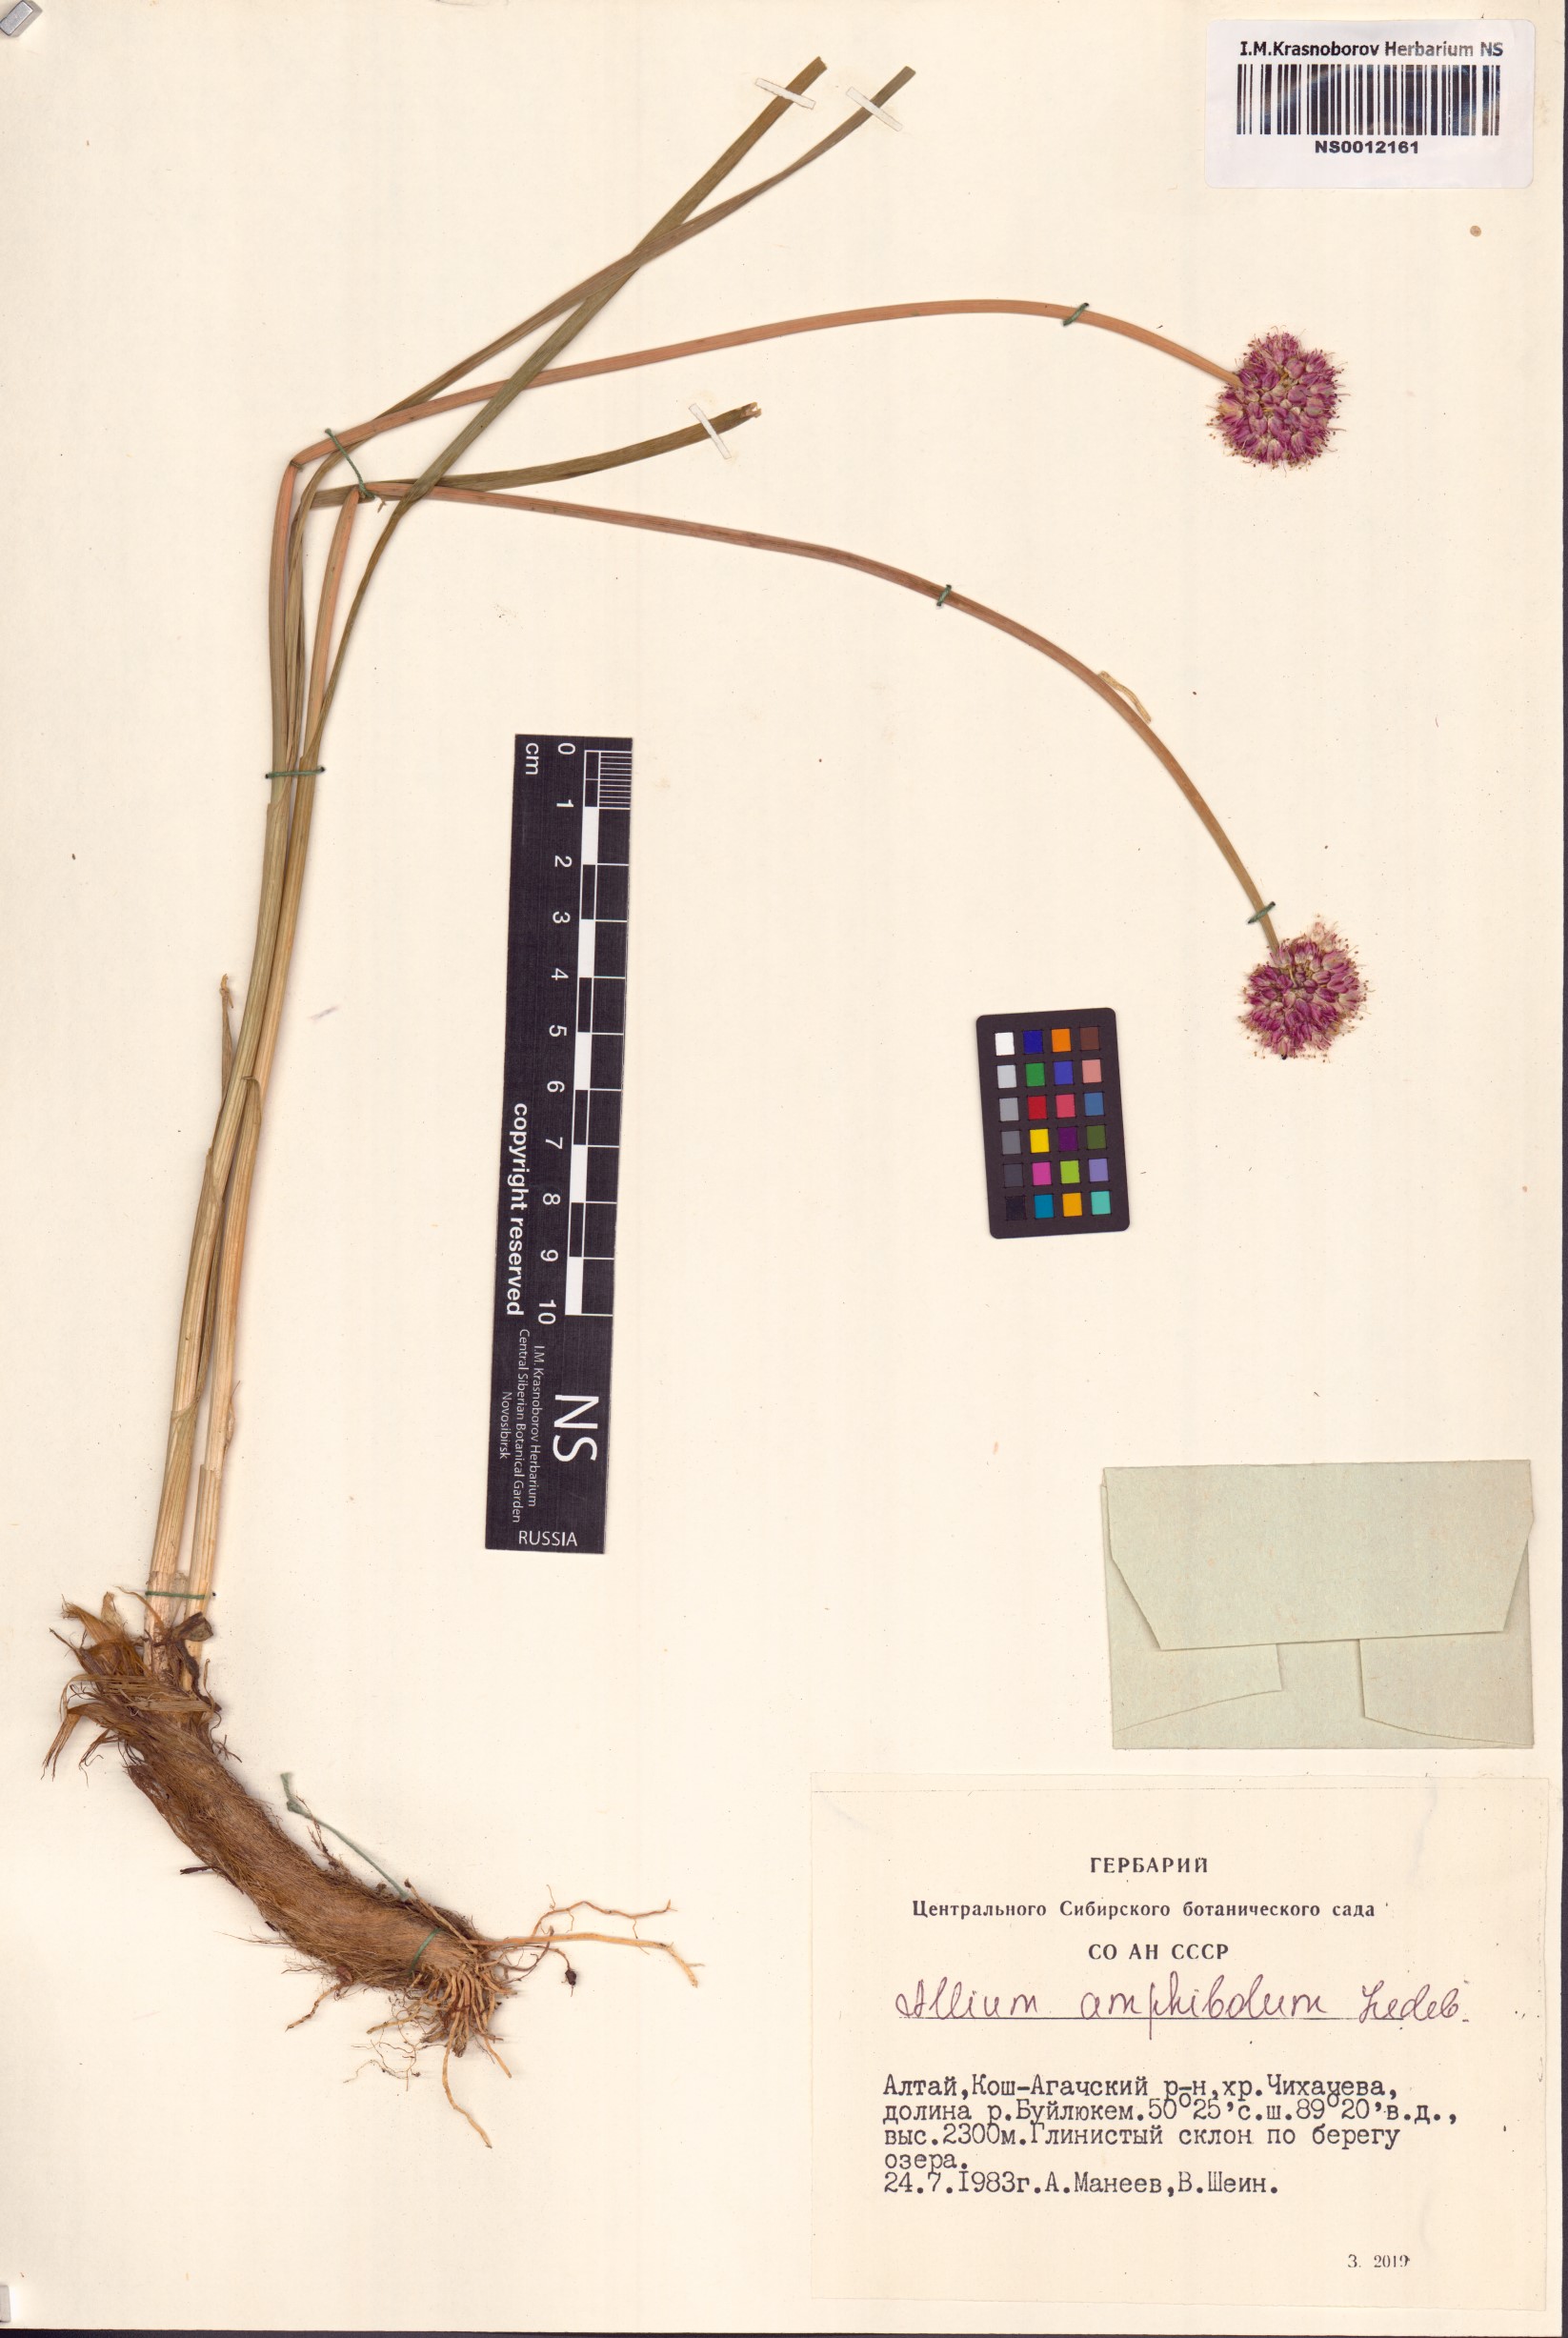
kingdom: Plantae
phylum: Tracheophyta
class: Liliopsida
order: Asparagales
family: Amaryllidaceae
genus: Allium
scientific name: Allium amphibolum
